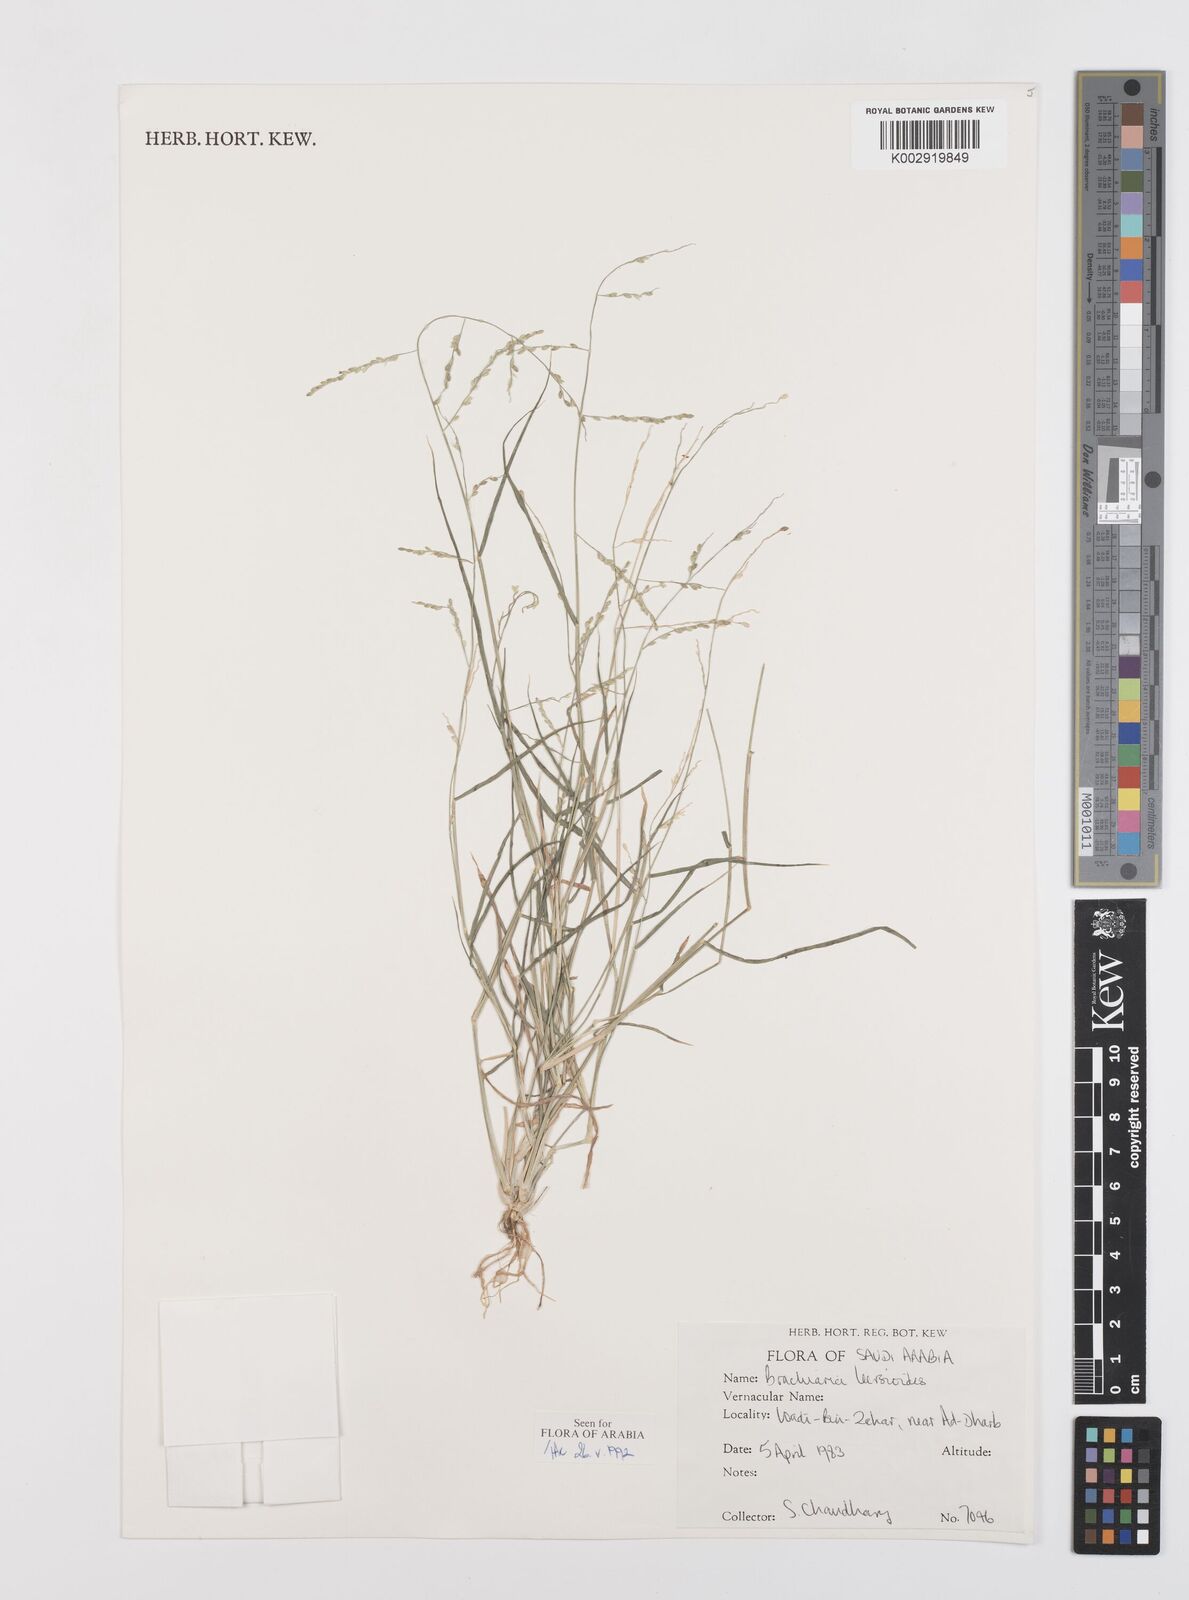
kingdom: Plantae
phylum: Tracheophyta
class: Liliopsida
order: Poales
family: Poaceae
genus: Urochloa
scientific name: Urochloa leersioides
